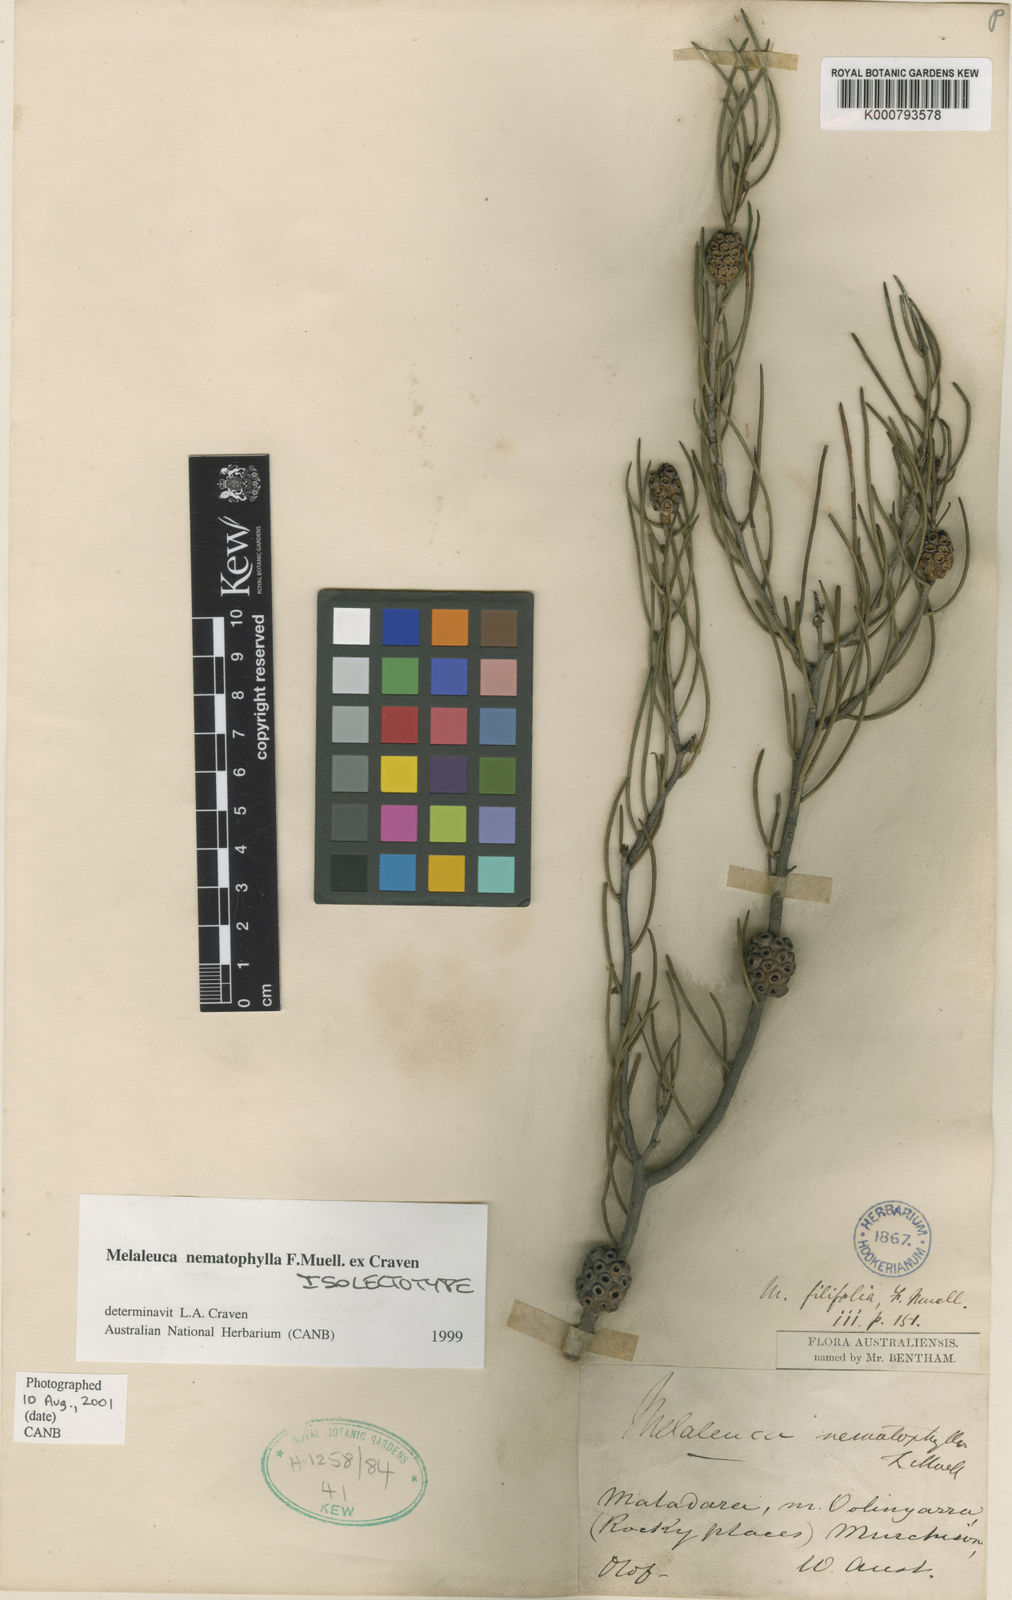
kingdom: Plantae
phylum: Tracheophyta
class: Magnoliopsida
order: Myrtales
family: Myrtaceae
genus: Melaleuca
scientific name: Melaleuca nematophylla
